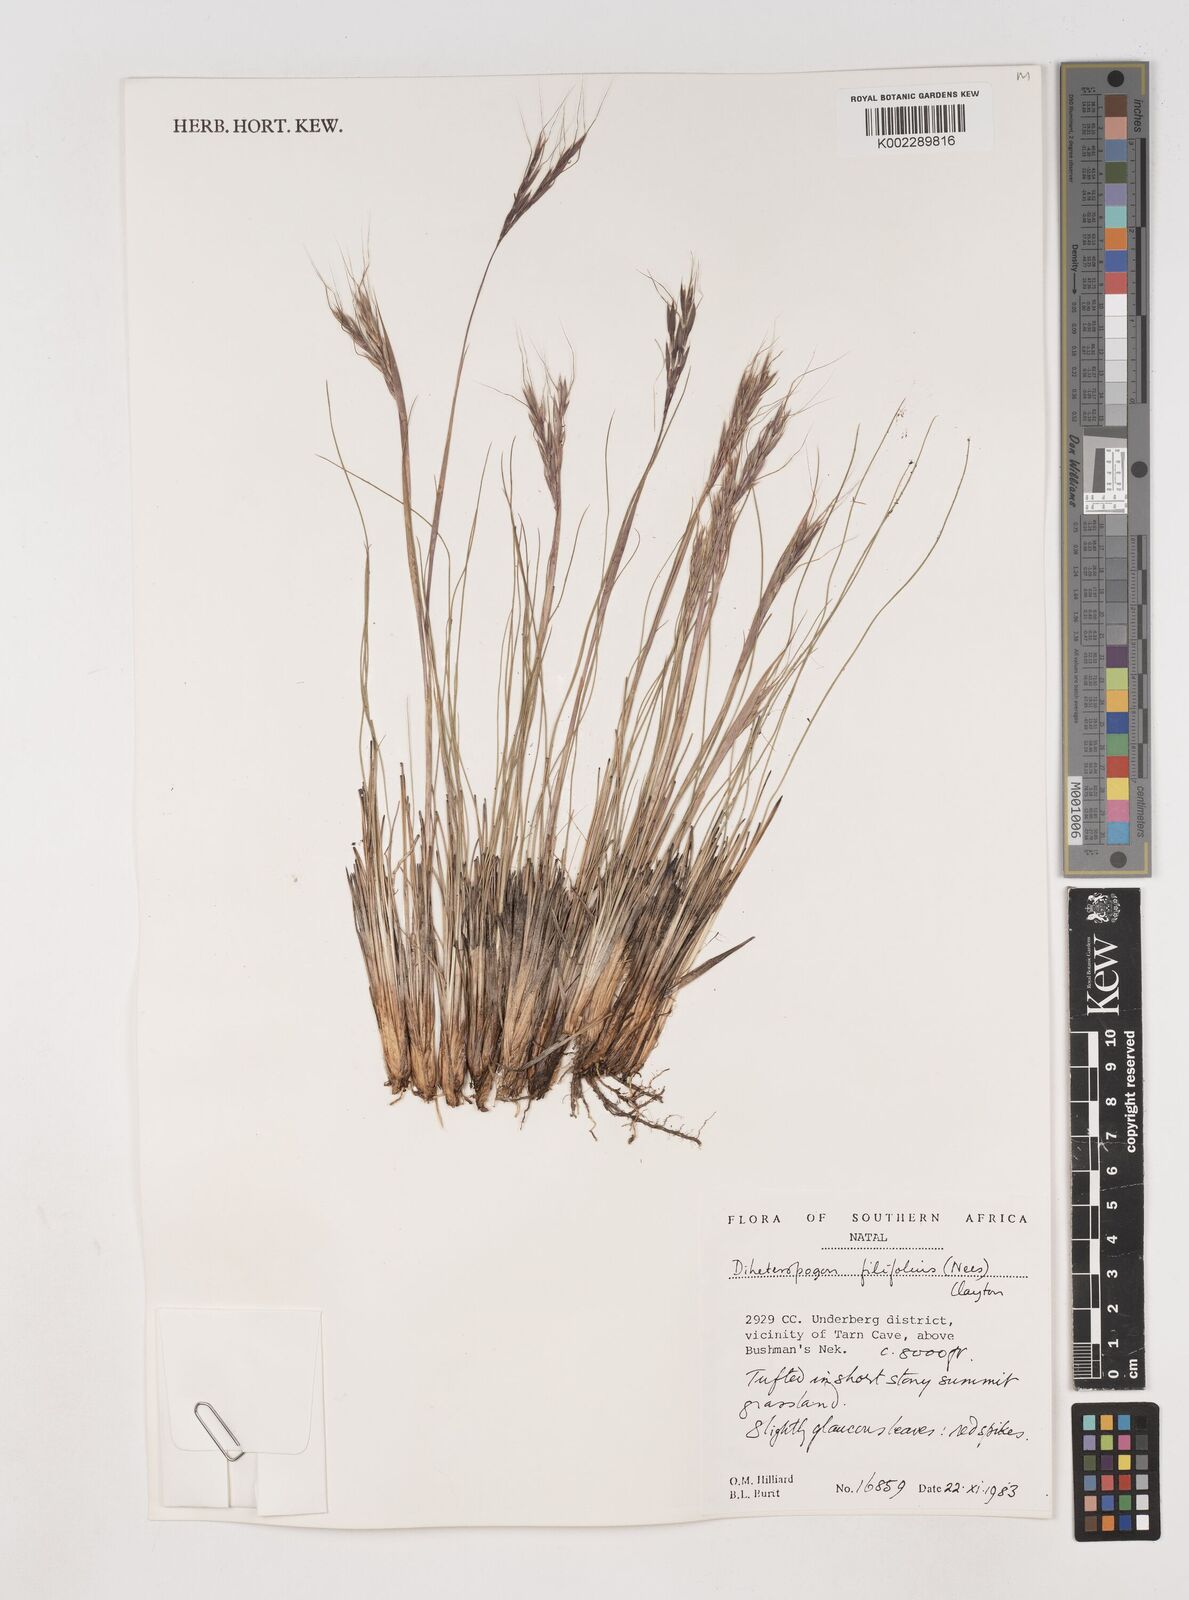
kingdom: Plantae
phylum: Tracheophyta
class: Liliopsida
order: Poales
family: Poaceae
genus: Diheteropogon
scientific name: Diheteropogon filifolius
